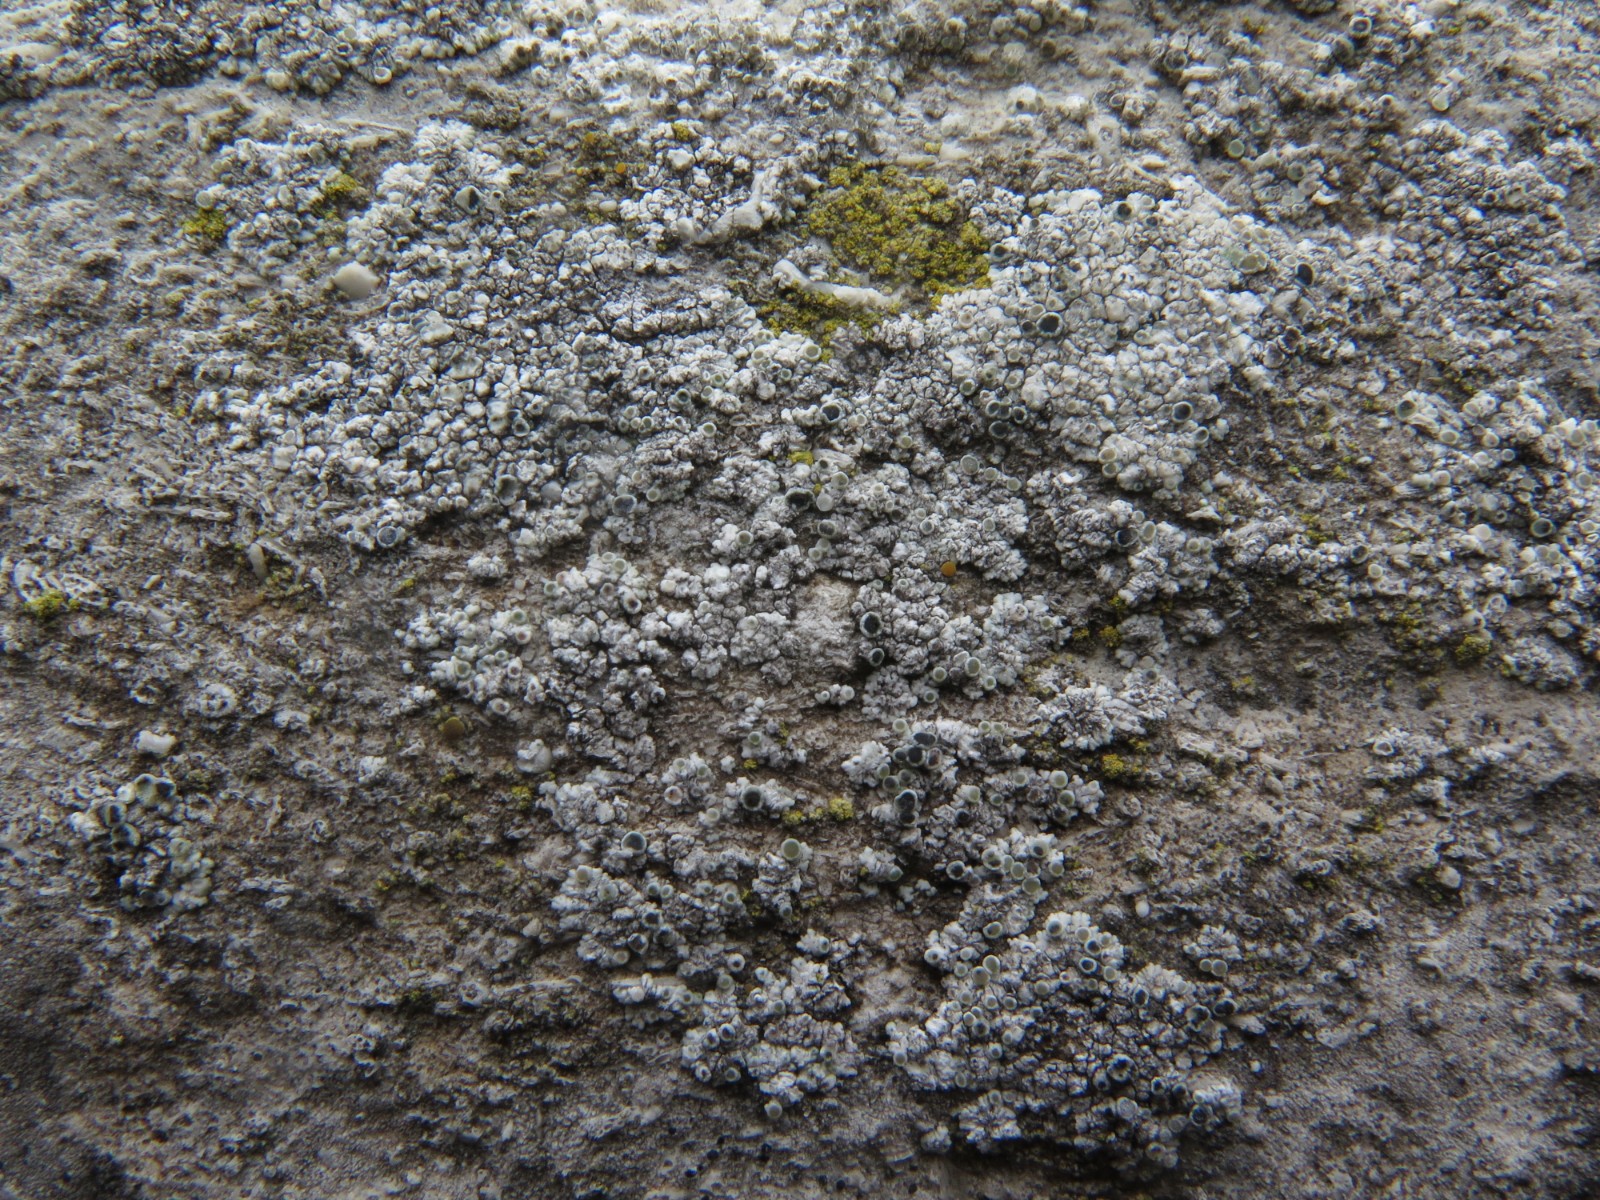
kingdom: Fungi
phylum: Ascomycota
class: Lecanoromycetes
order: Lecanorales
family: Lecanoraceae
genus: Polyozosia
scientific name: Polyozosia albescens
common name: cement-kantskivelav
